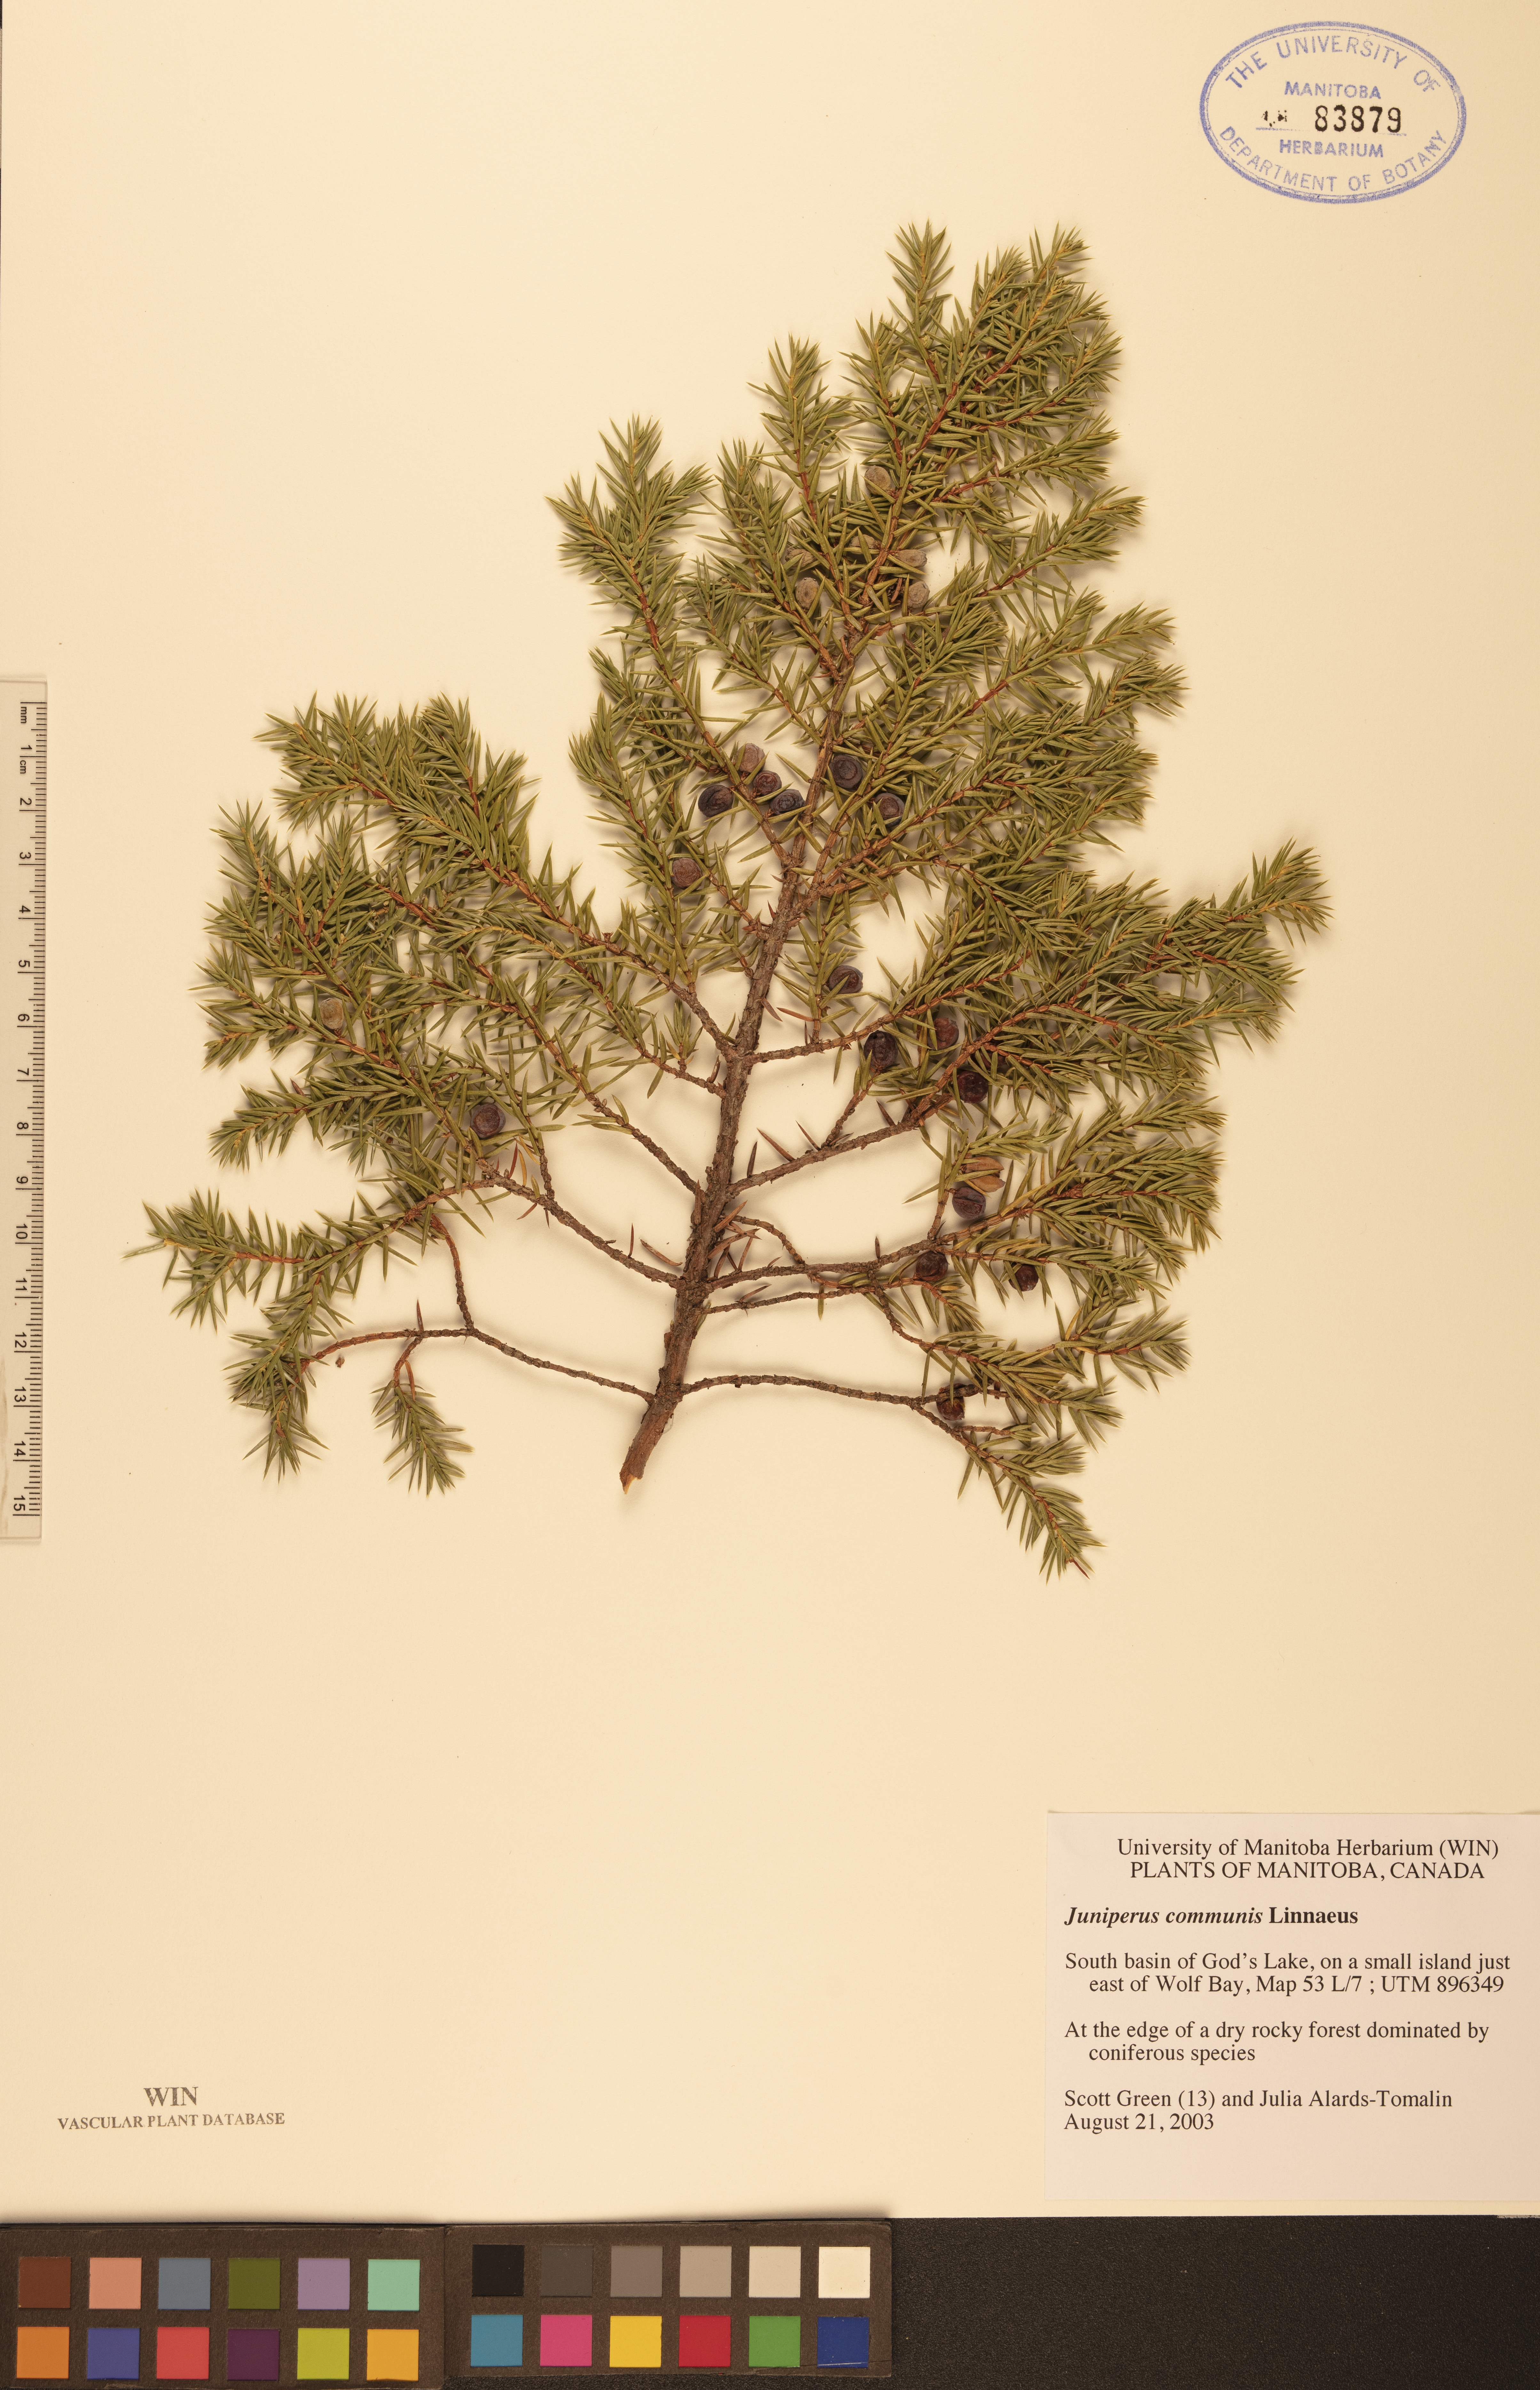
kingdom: Plantae
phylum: Tracheophyta
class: Pinopsida
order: Pinales
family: Cupressaceae
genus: Juniperus
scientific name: Juniperus communis
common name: Common juniper
